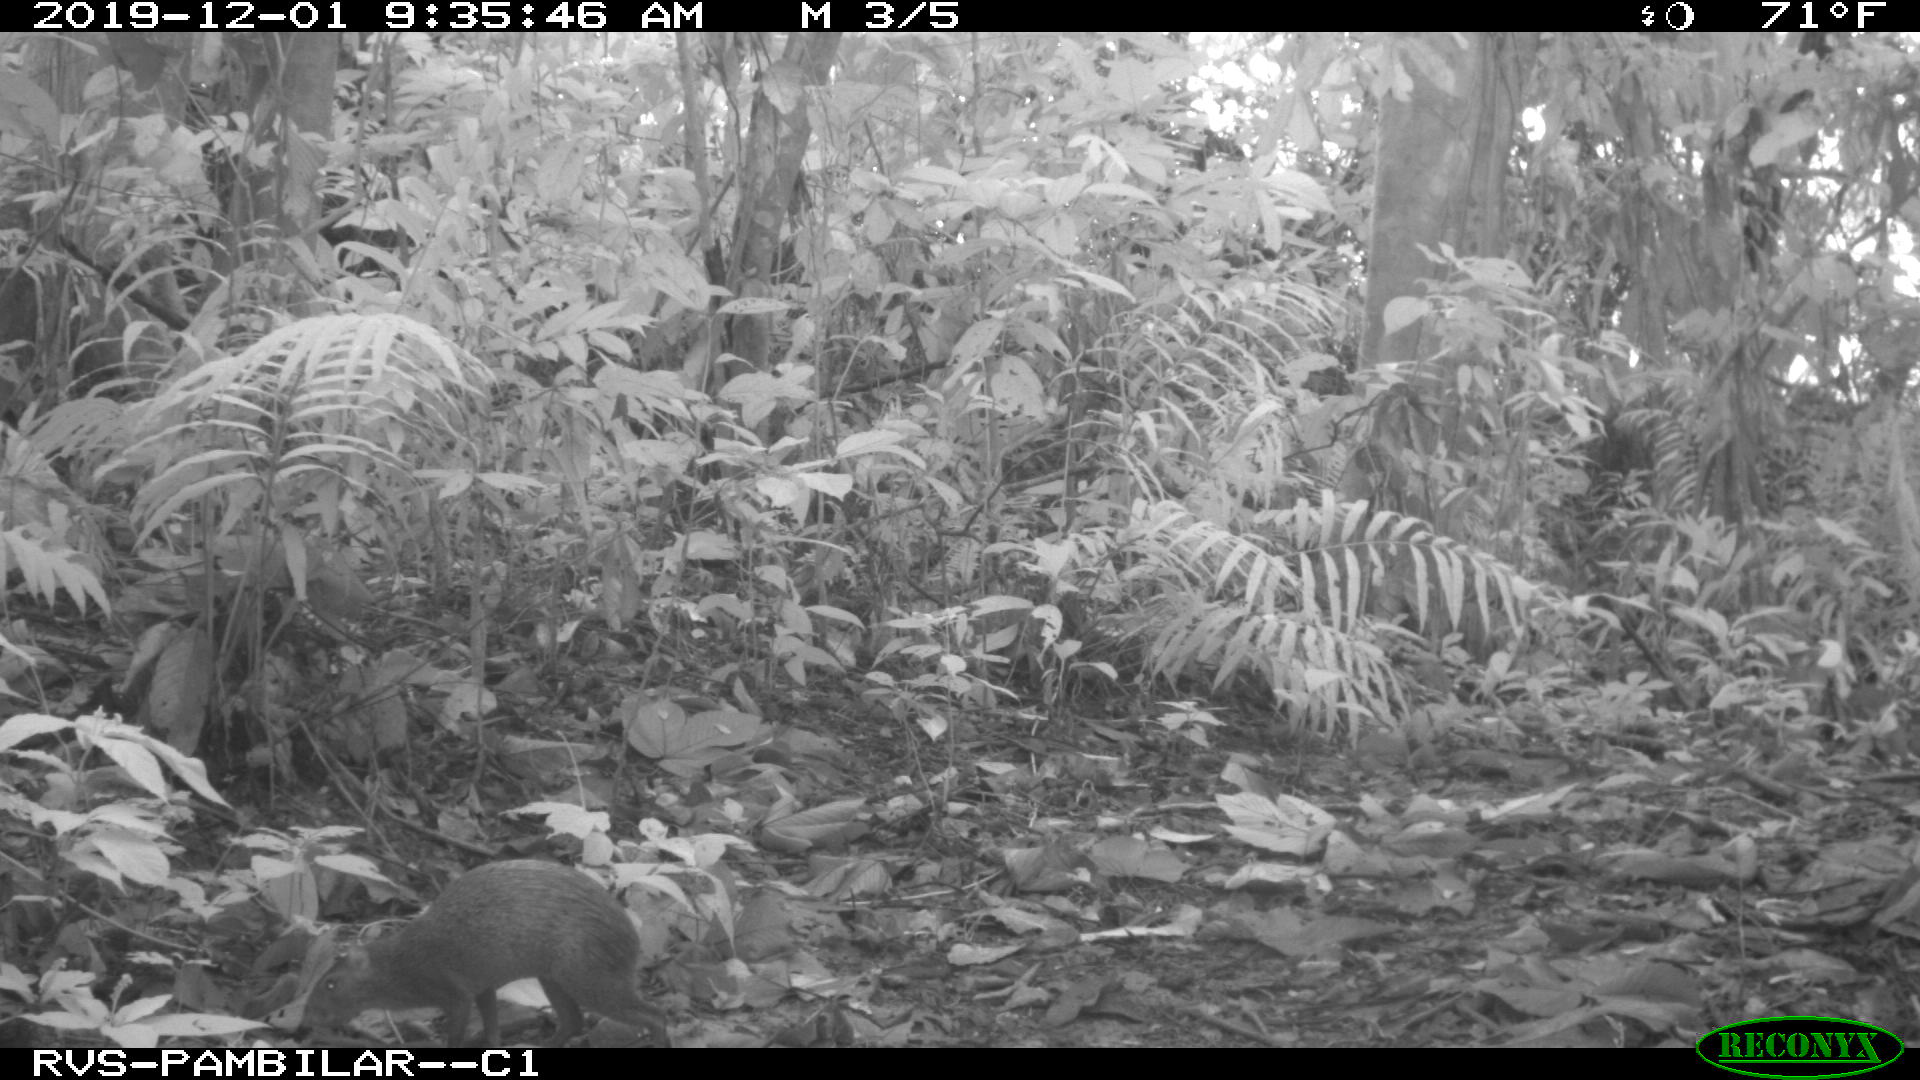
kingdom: Animalia
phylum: Chordata
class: Mammalia
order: Rodentia
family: Dasyproctidae
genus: Dasyprocta
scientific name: Dasyprocta punctata
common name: Central american agouti
